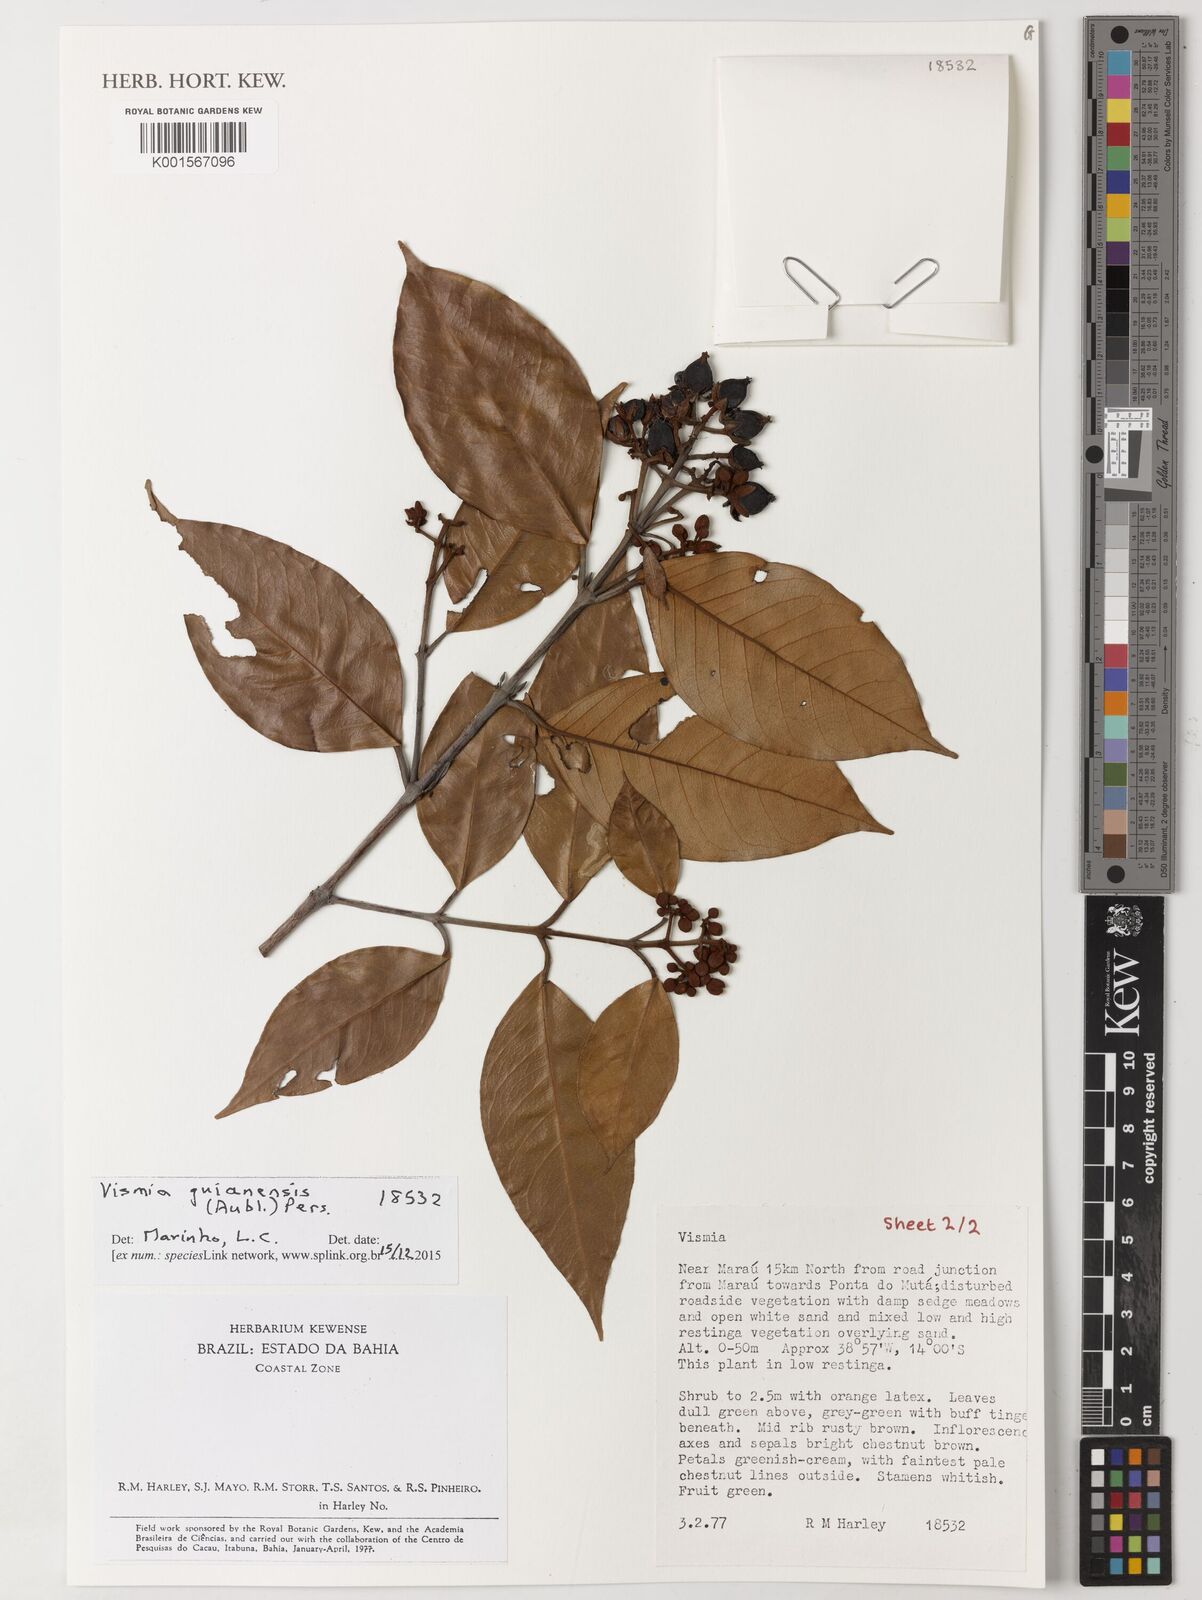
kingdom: Plantae
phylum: Tracheophyta
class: Magnoliopsida
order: Malpighiales
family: Hypericaceae
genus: Vismia
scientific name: Vismia guianensis
